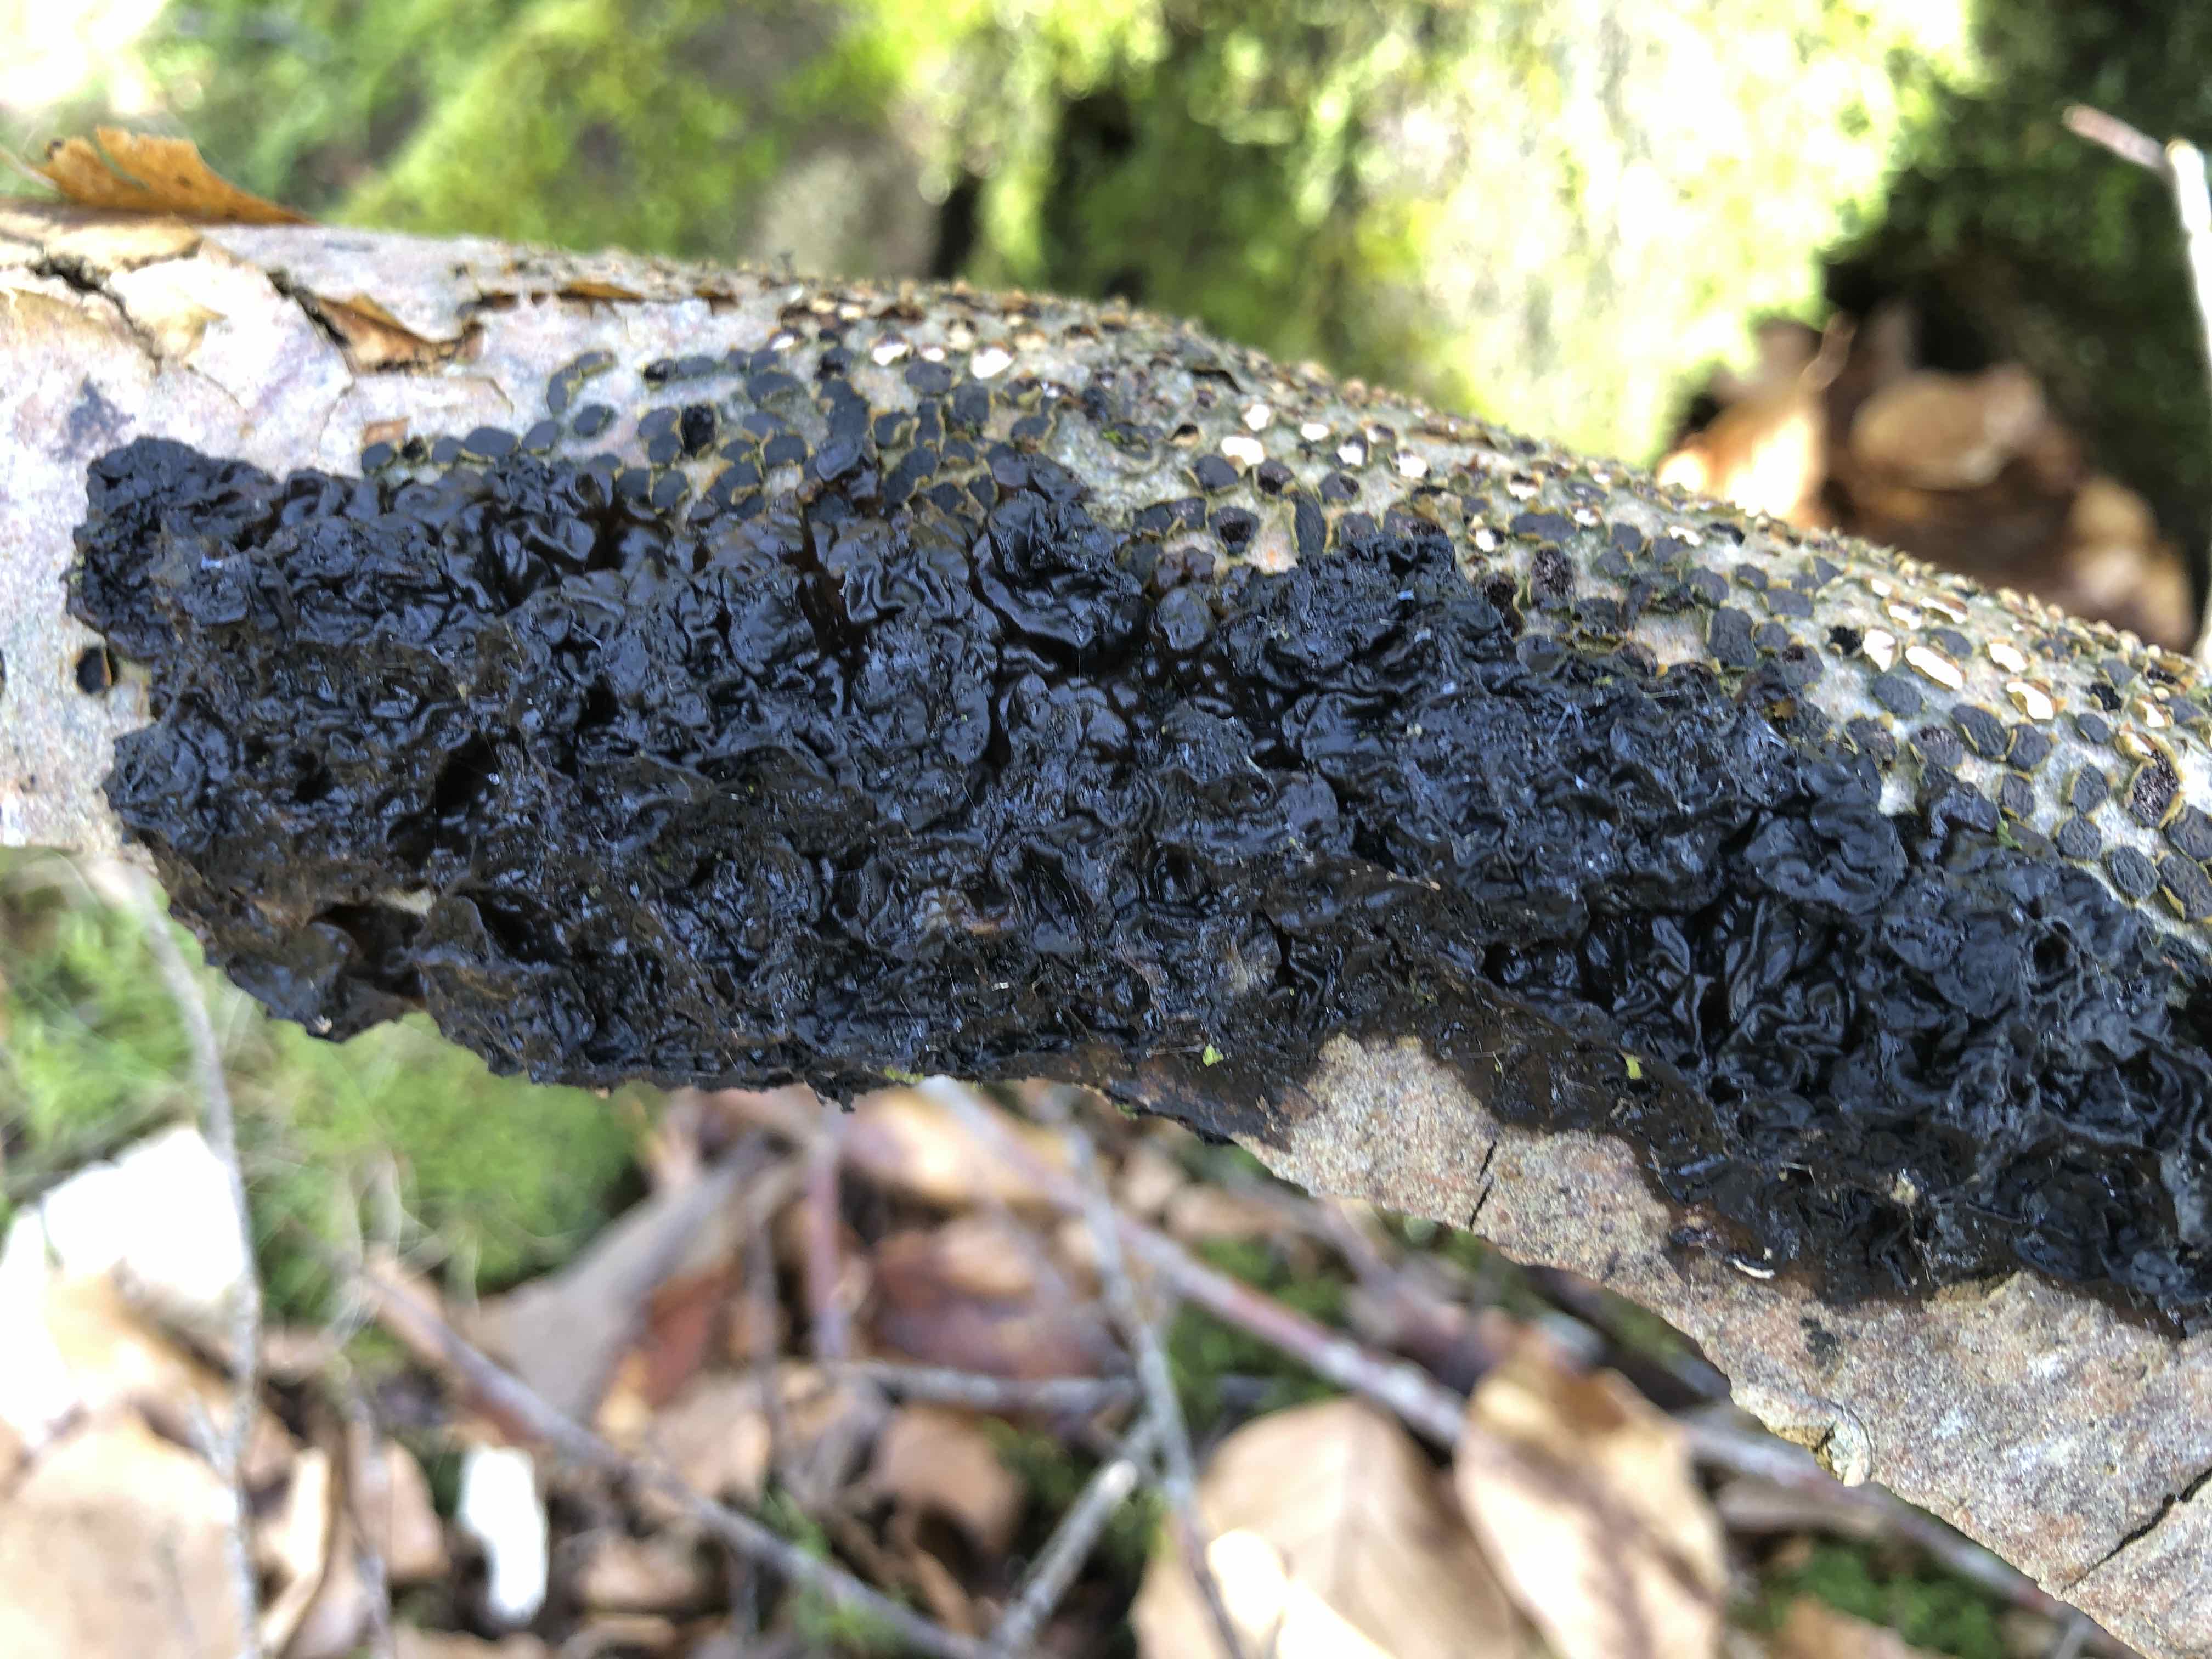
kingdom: Fungi
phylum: Basidiomycota
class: Agaricomycetes
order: Auriculariales
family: Auriculariaceae
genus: Exidia
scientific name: Exidia nigricans
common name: almindelig bævretop
